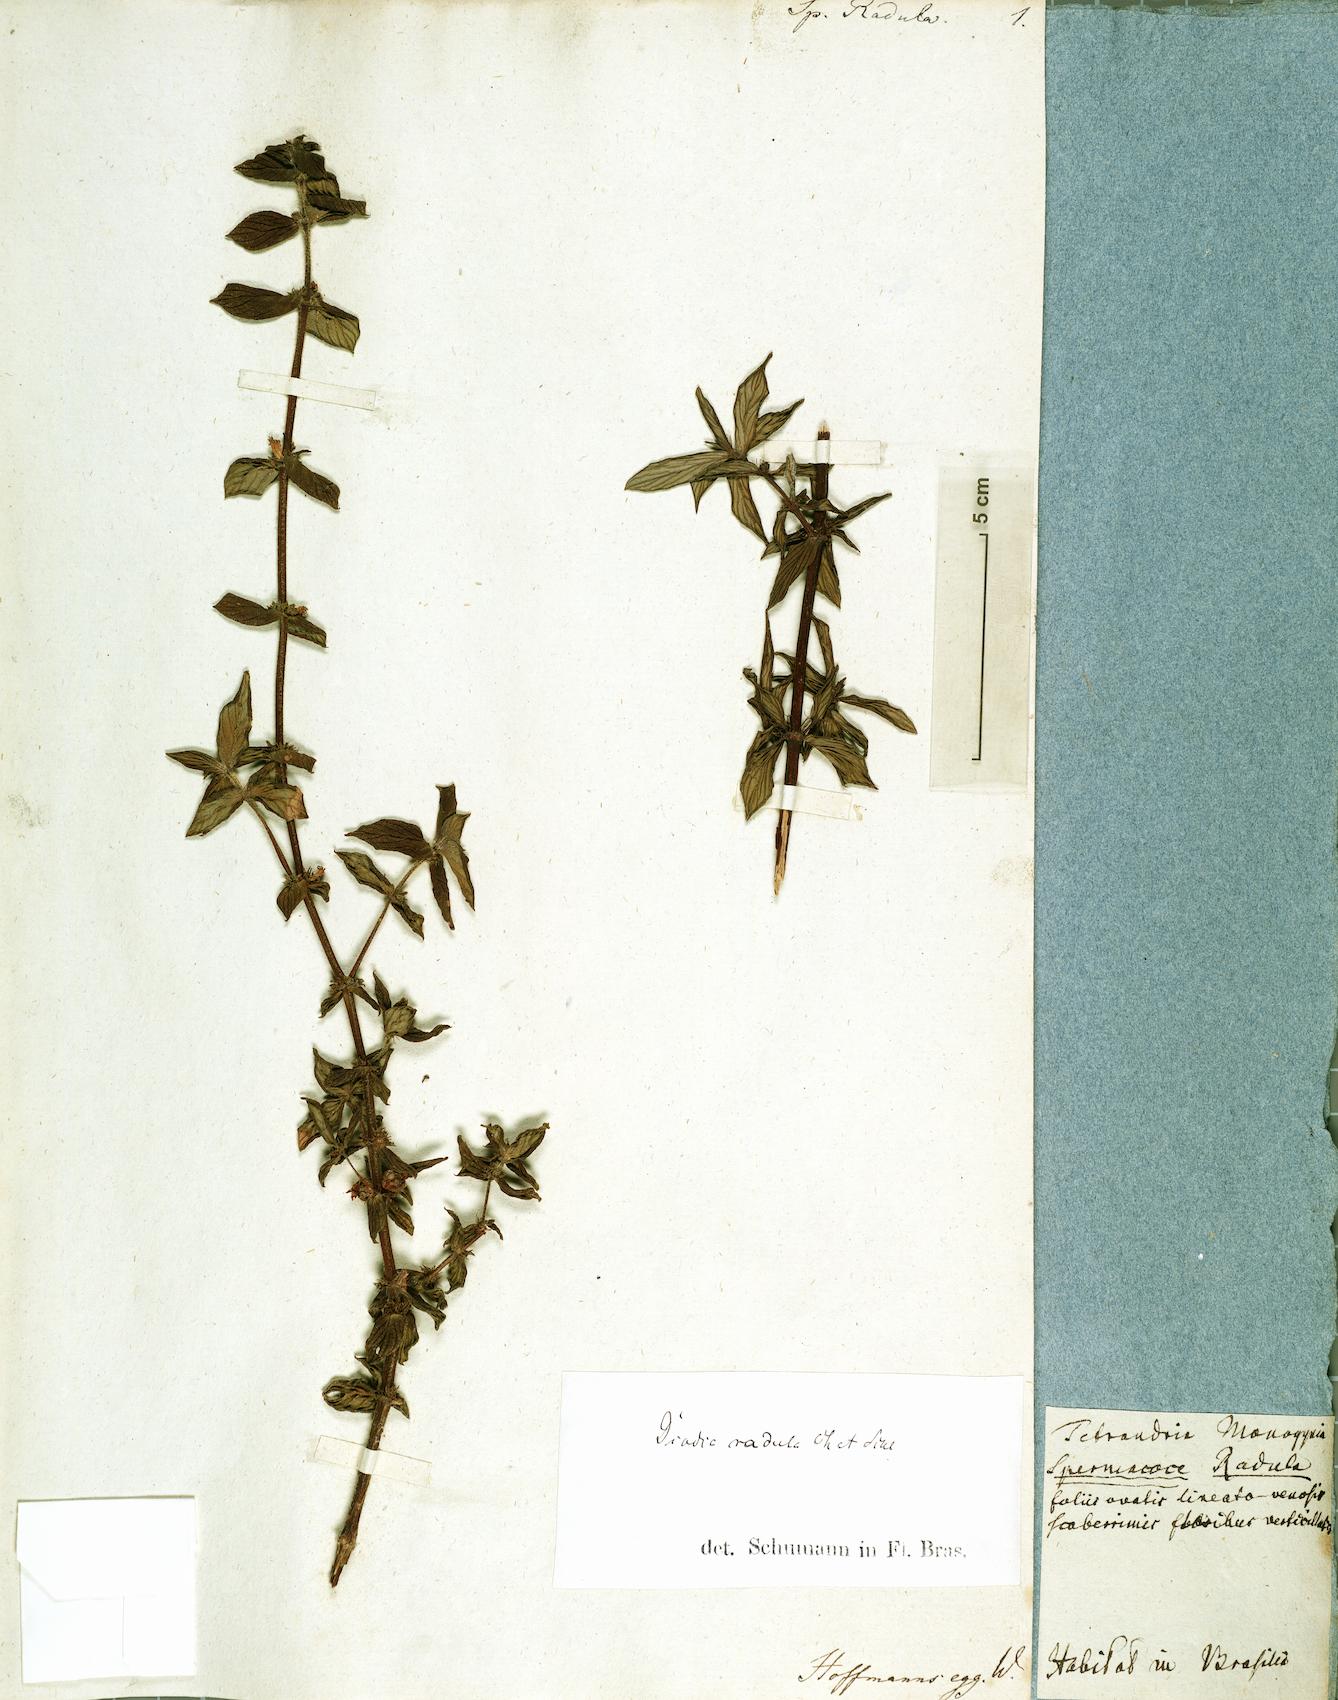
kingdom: Plantae
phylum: Tracheophyta
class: Magnoliopsida
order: Gentianales
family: Rubiaceae
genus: Hexasepalum
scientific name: Hexasepalum radulum
